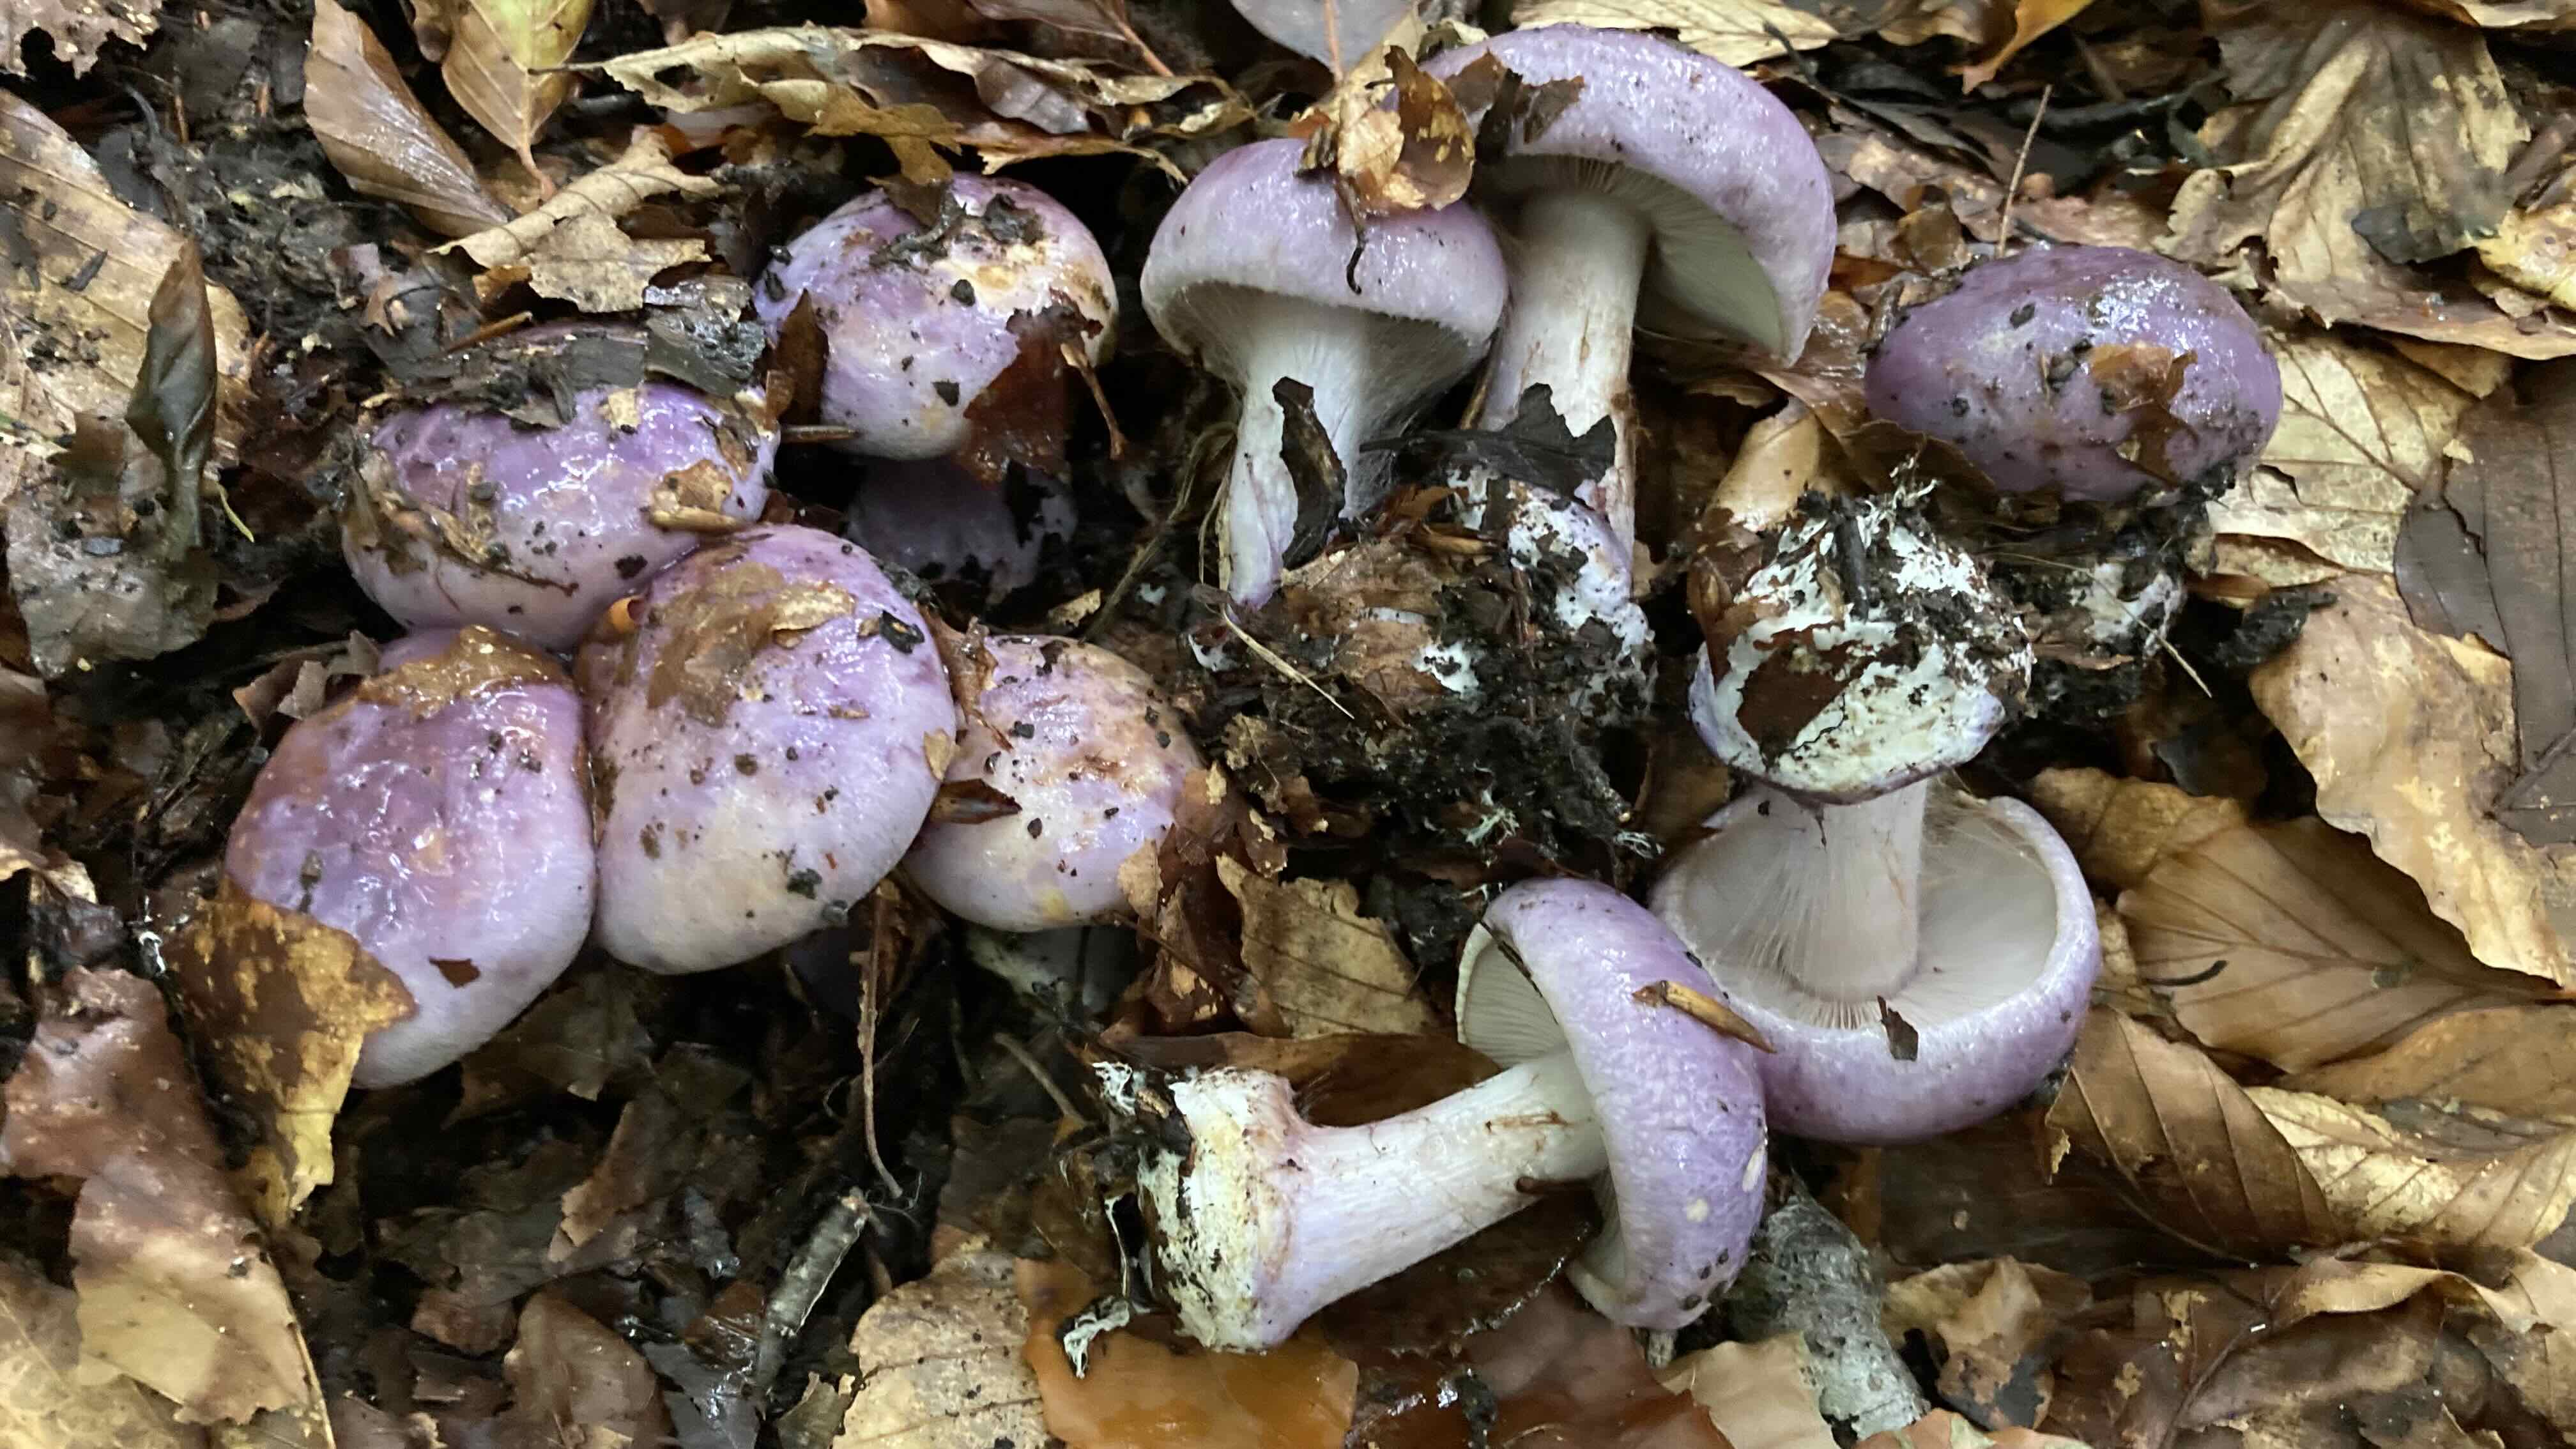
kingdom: Fungi
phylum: Basidiomycota
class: Agaricomycetes
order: Agaricales
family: Cortinariaceae
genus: Calonarius
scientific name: Calonarius sodagnitus
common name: violblå slørhat
